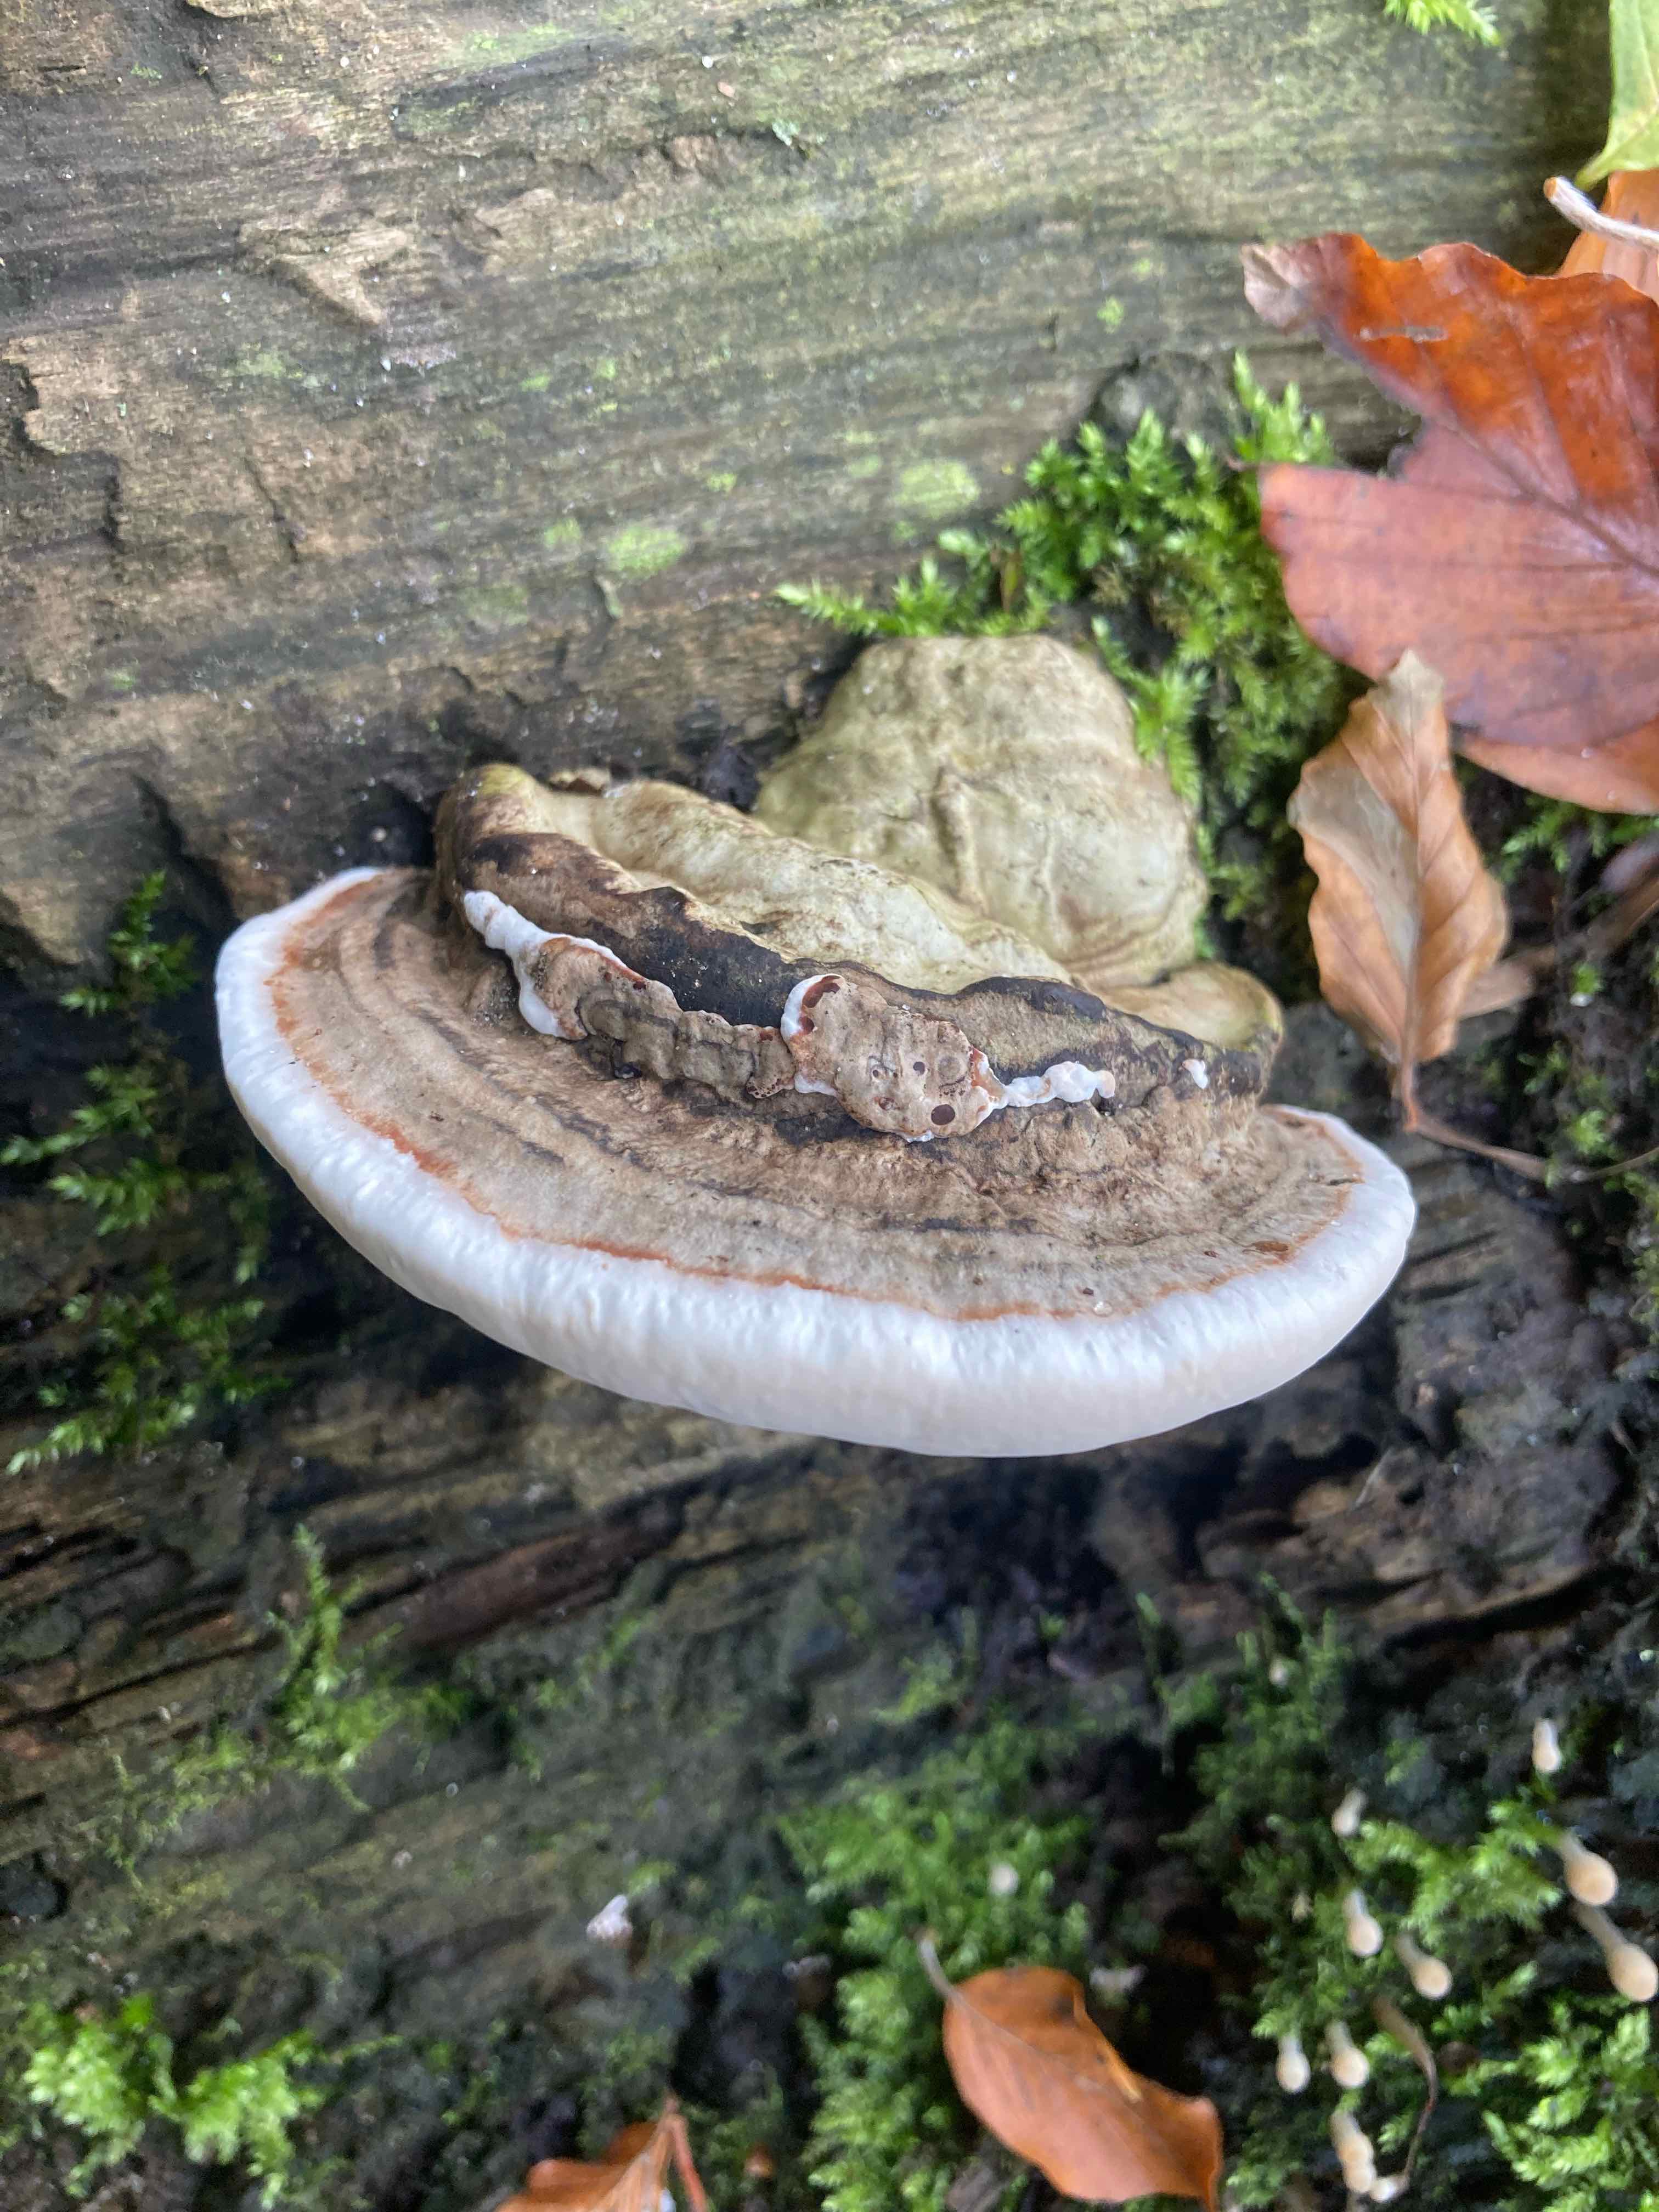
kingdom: Fungi
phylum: Basidiomycota
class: Agaricomycetes
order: Polyporales
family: Polyporaceae
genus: Ganoderma
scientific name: Ganoderma applanatum
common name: flad lakporesvamp
